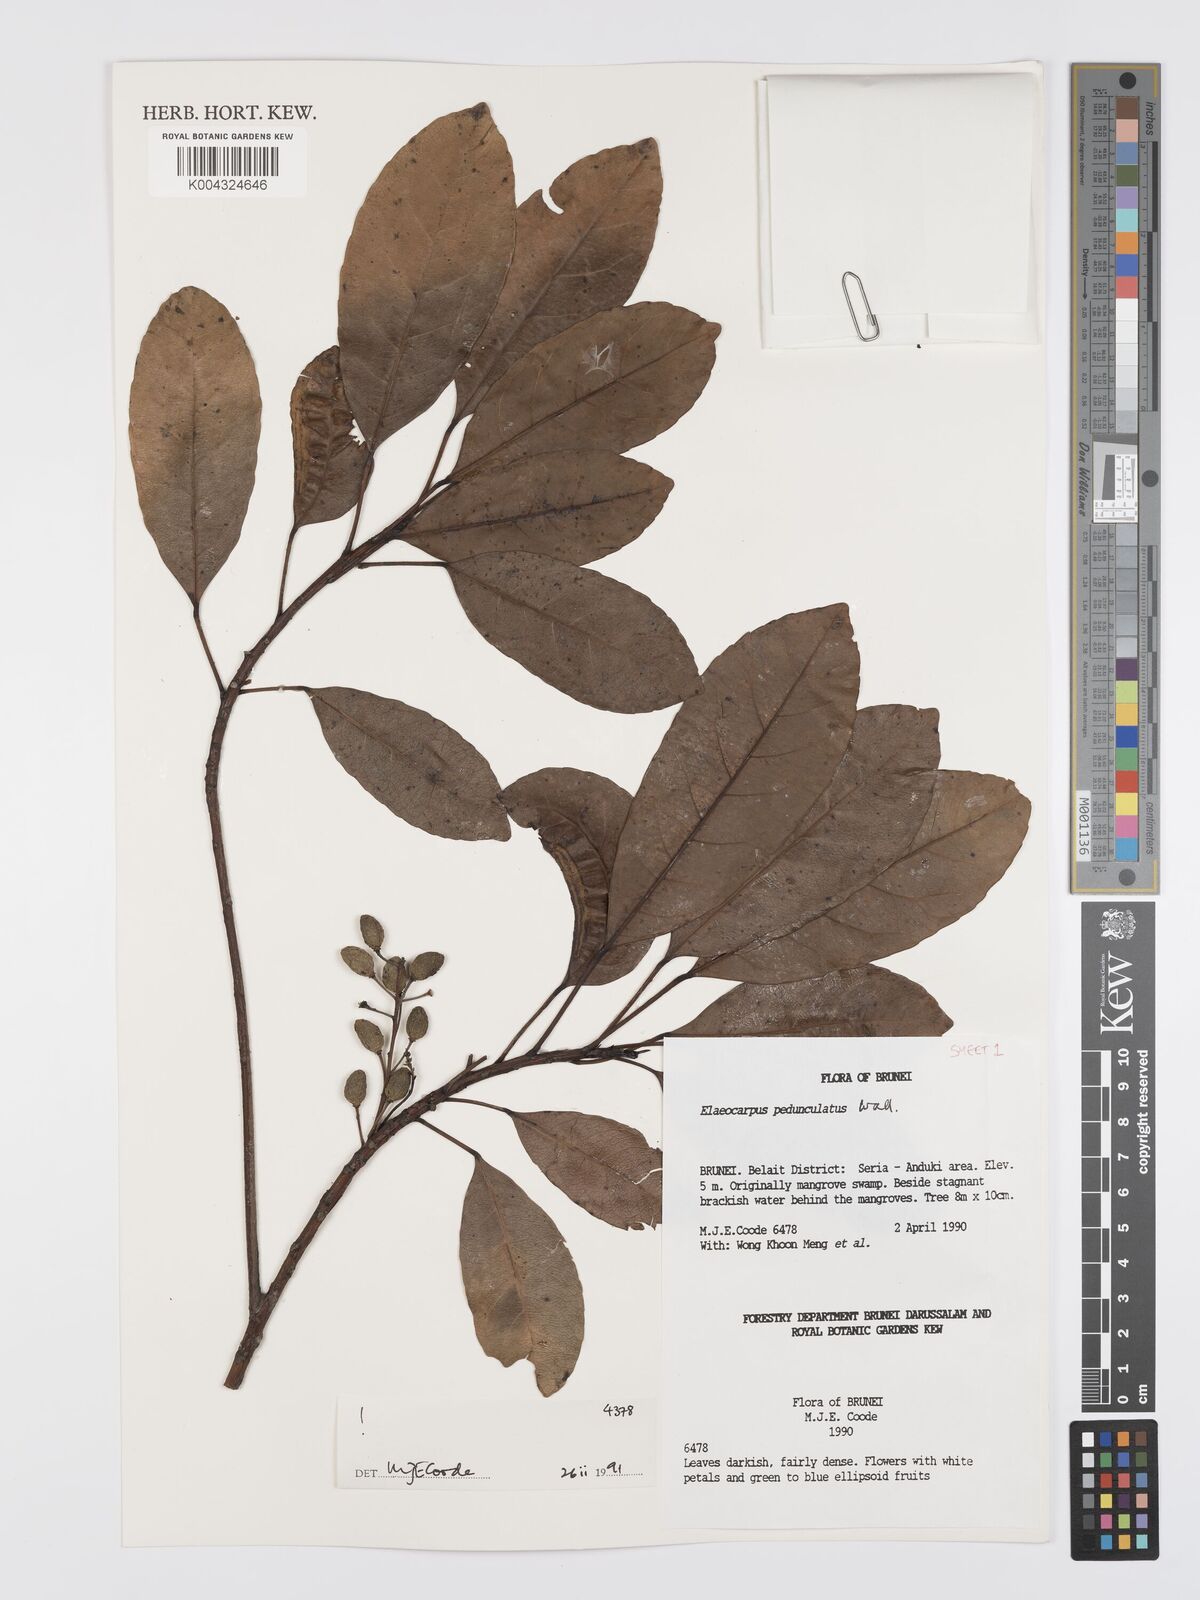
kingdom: Plantae
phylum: Tracheophyta
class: Magnoliopsida
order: Oxalidales
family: Elaeocarpaceae
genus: Elaeocarpus
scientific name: Elaeocarpus pedunculatus
